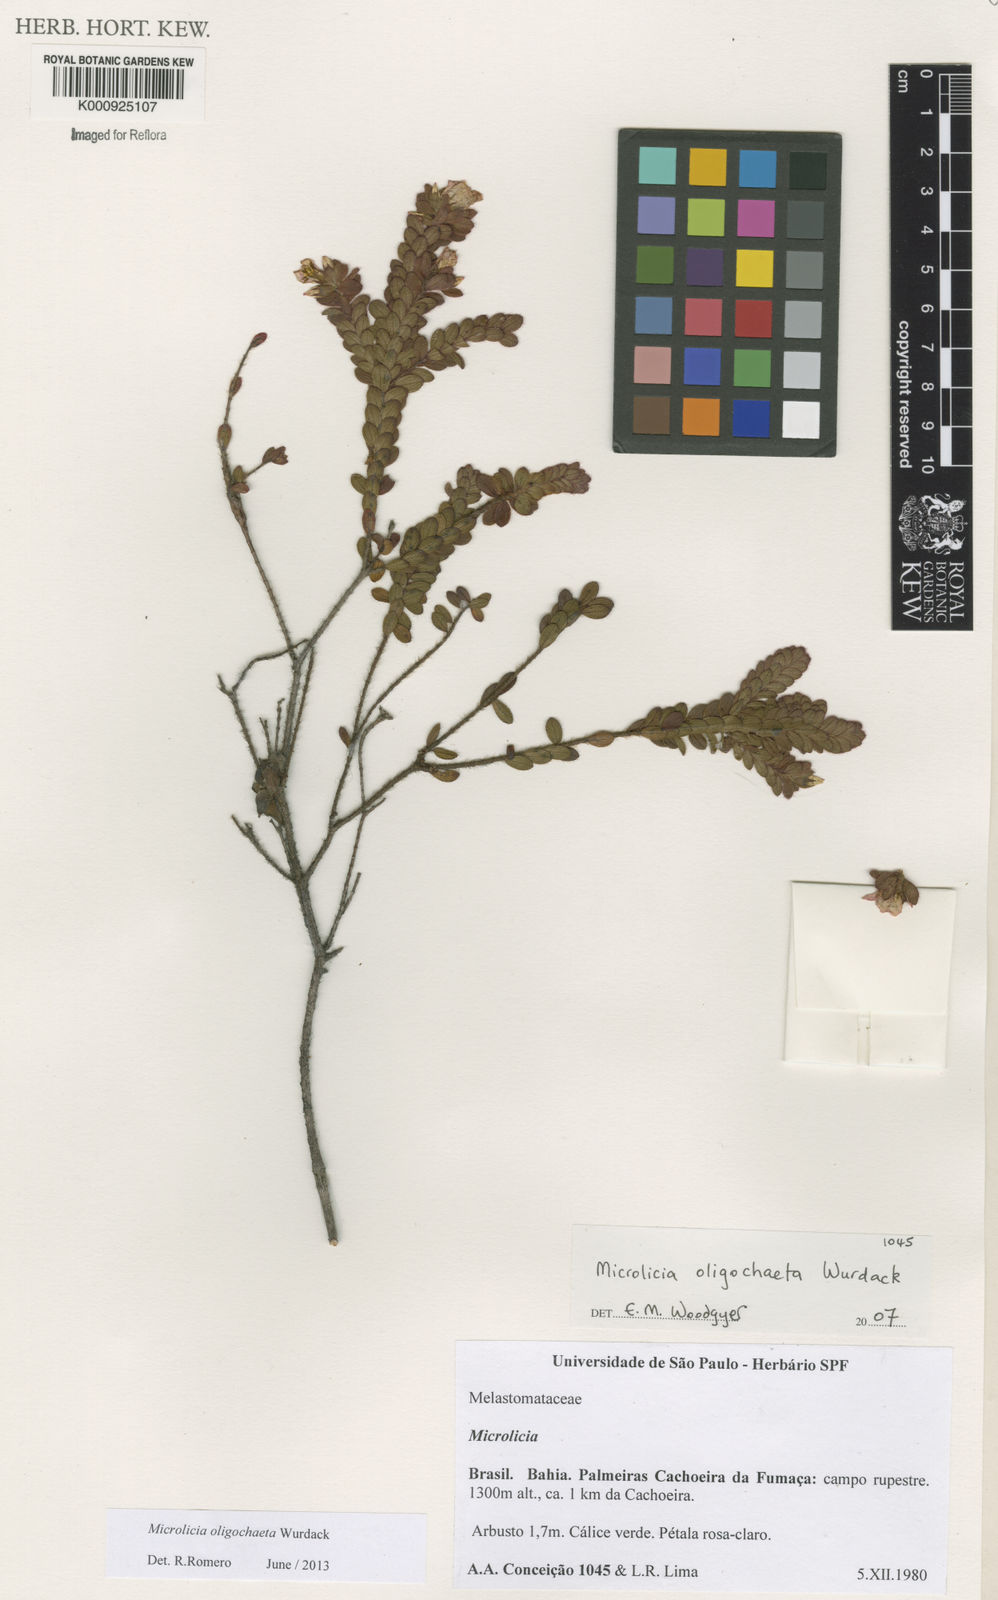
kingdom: Plantae
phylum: Tracheophyta
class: Magnoliopsida
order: Myrtales
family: Melastomataceae
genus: Microlicia
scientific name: Microlicia oligochaeta
